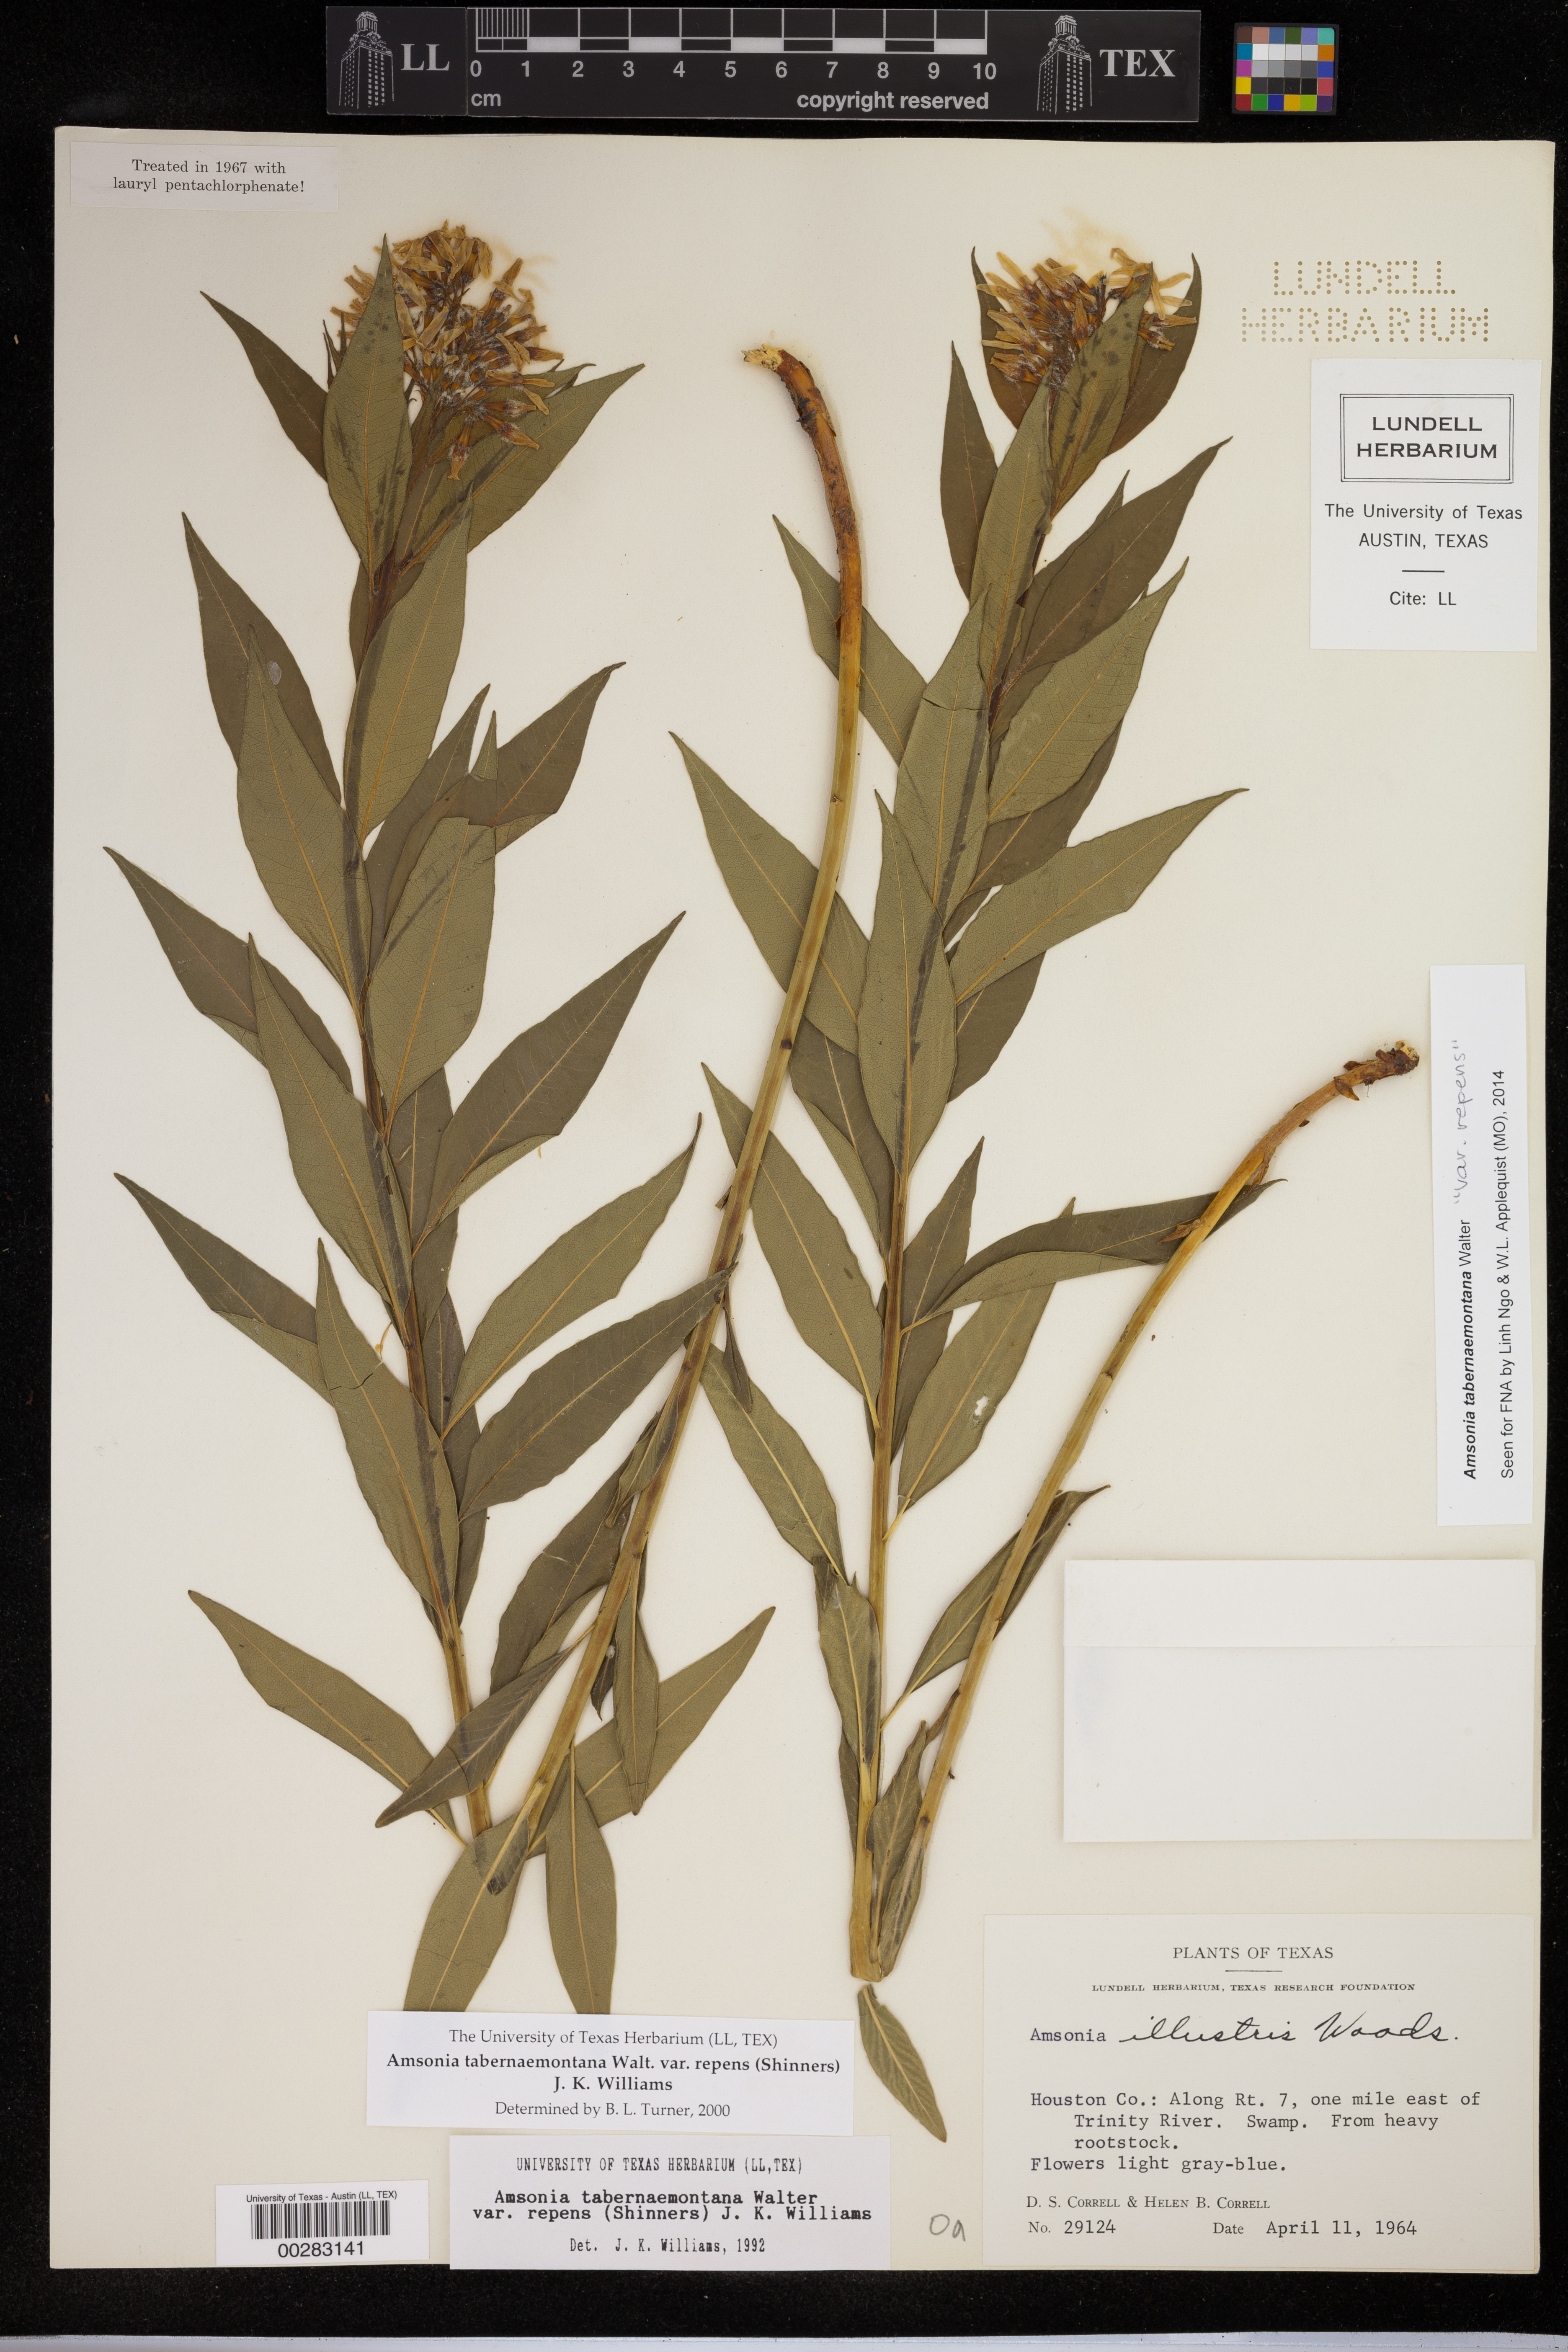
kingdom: Plantae
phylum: Tracheophyta
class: Magnoliopsida
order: Gentianales
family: Apocynaceae
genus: Amsonia
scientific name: Amsonia tabernaemontana
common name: Texas-star
